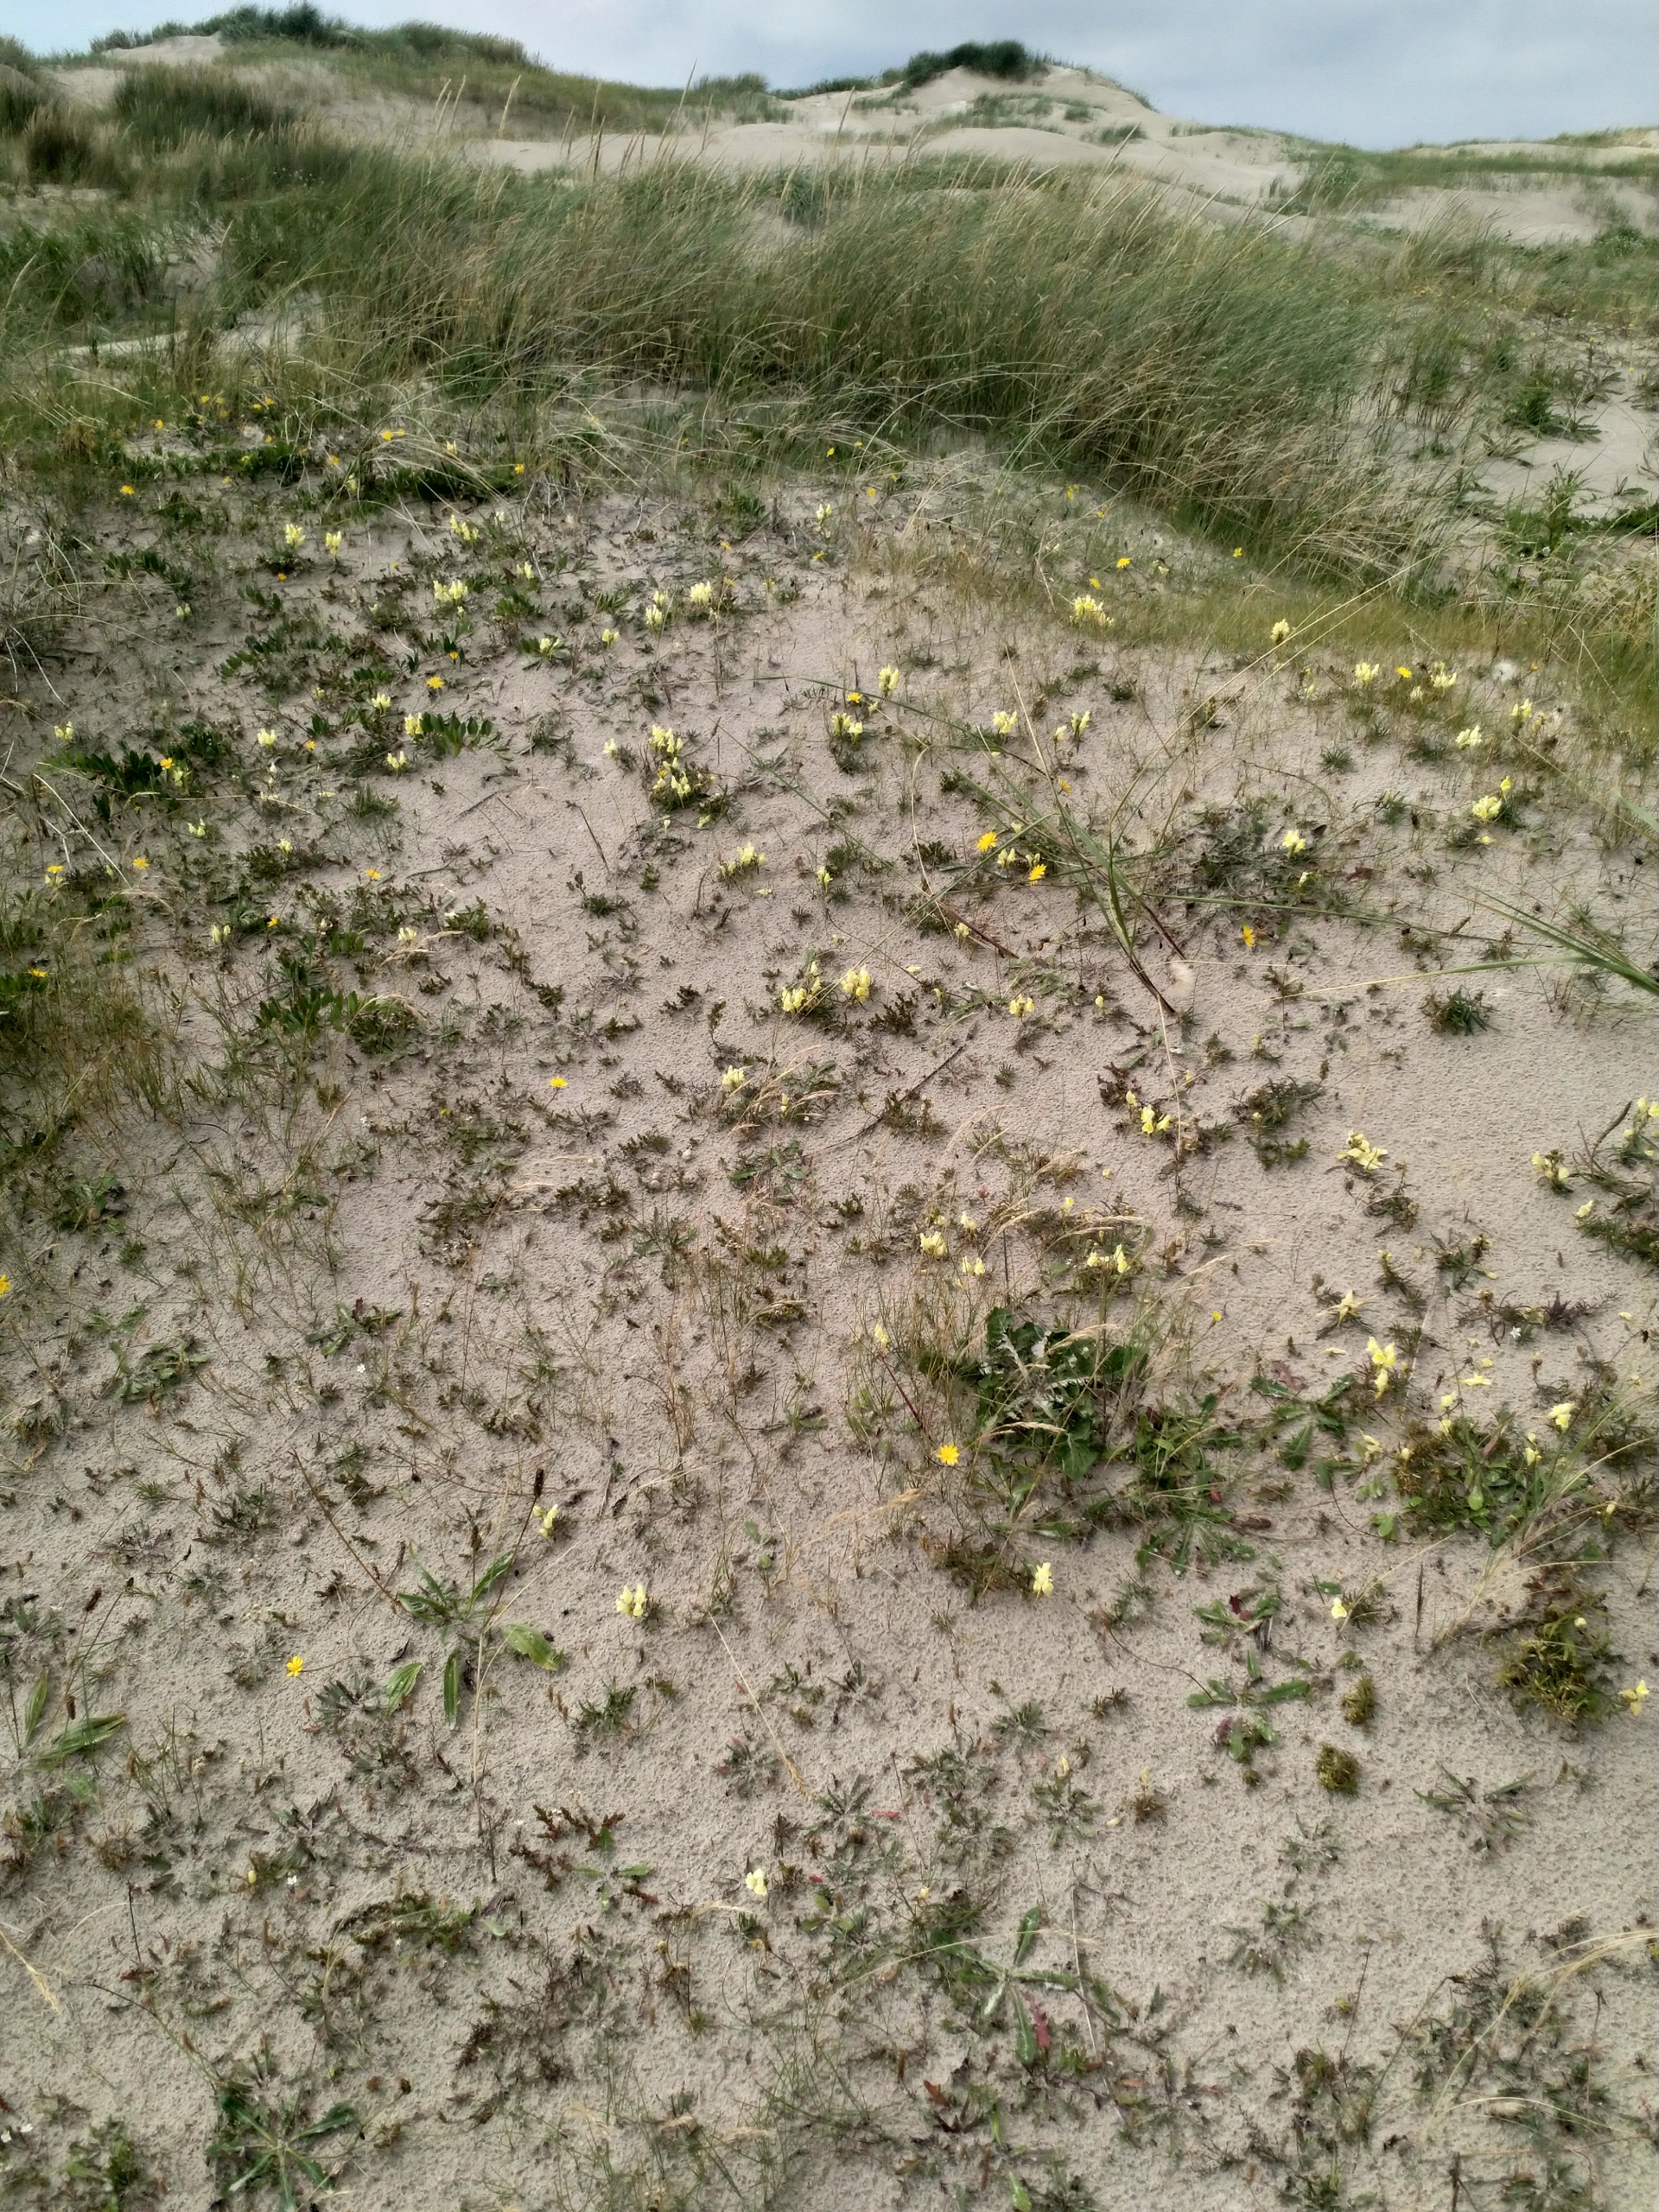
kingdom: Plantae
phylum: Tracheophyta
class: Magnoliopsida
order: Lamiales
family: Plantaginaceae
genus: Linaria
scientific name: Linaria vulgaris
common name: Almindelig torskemund
